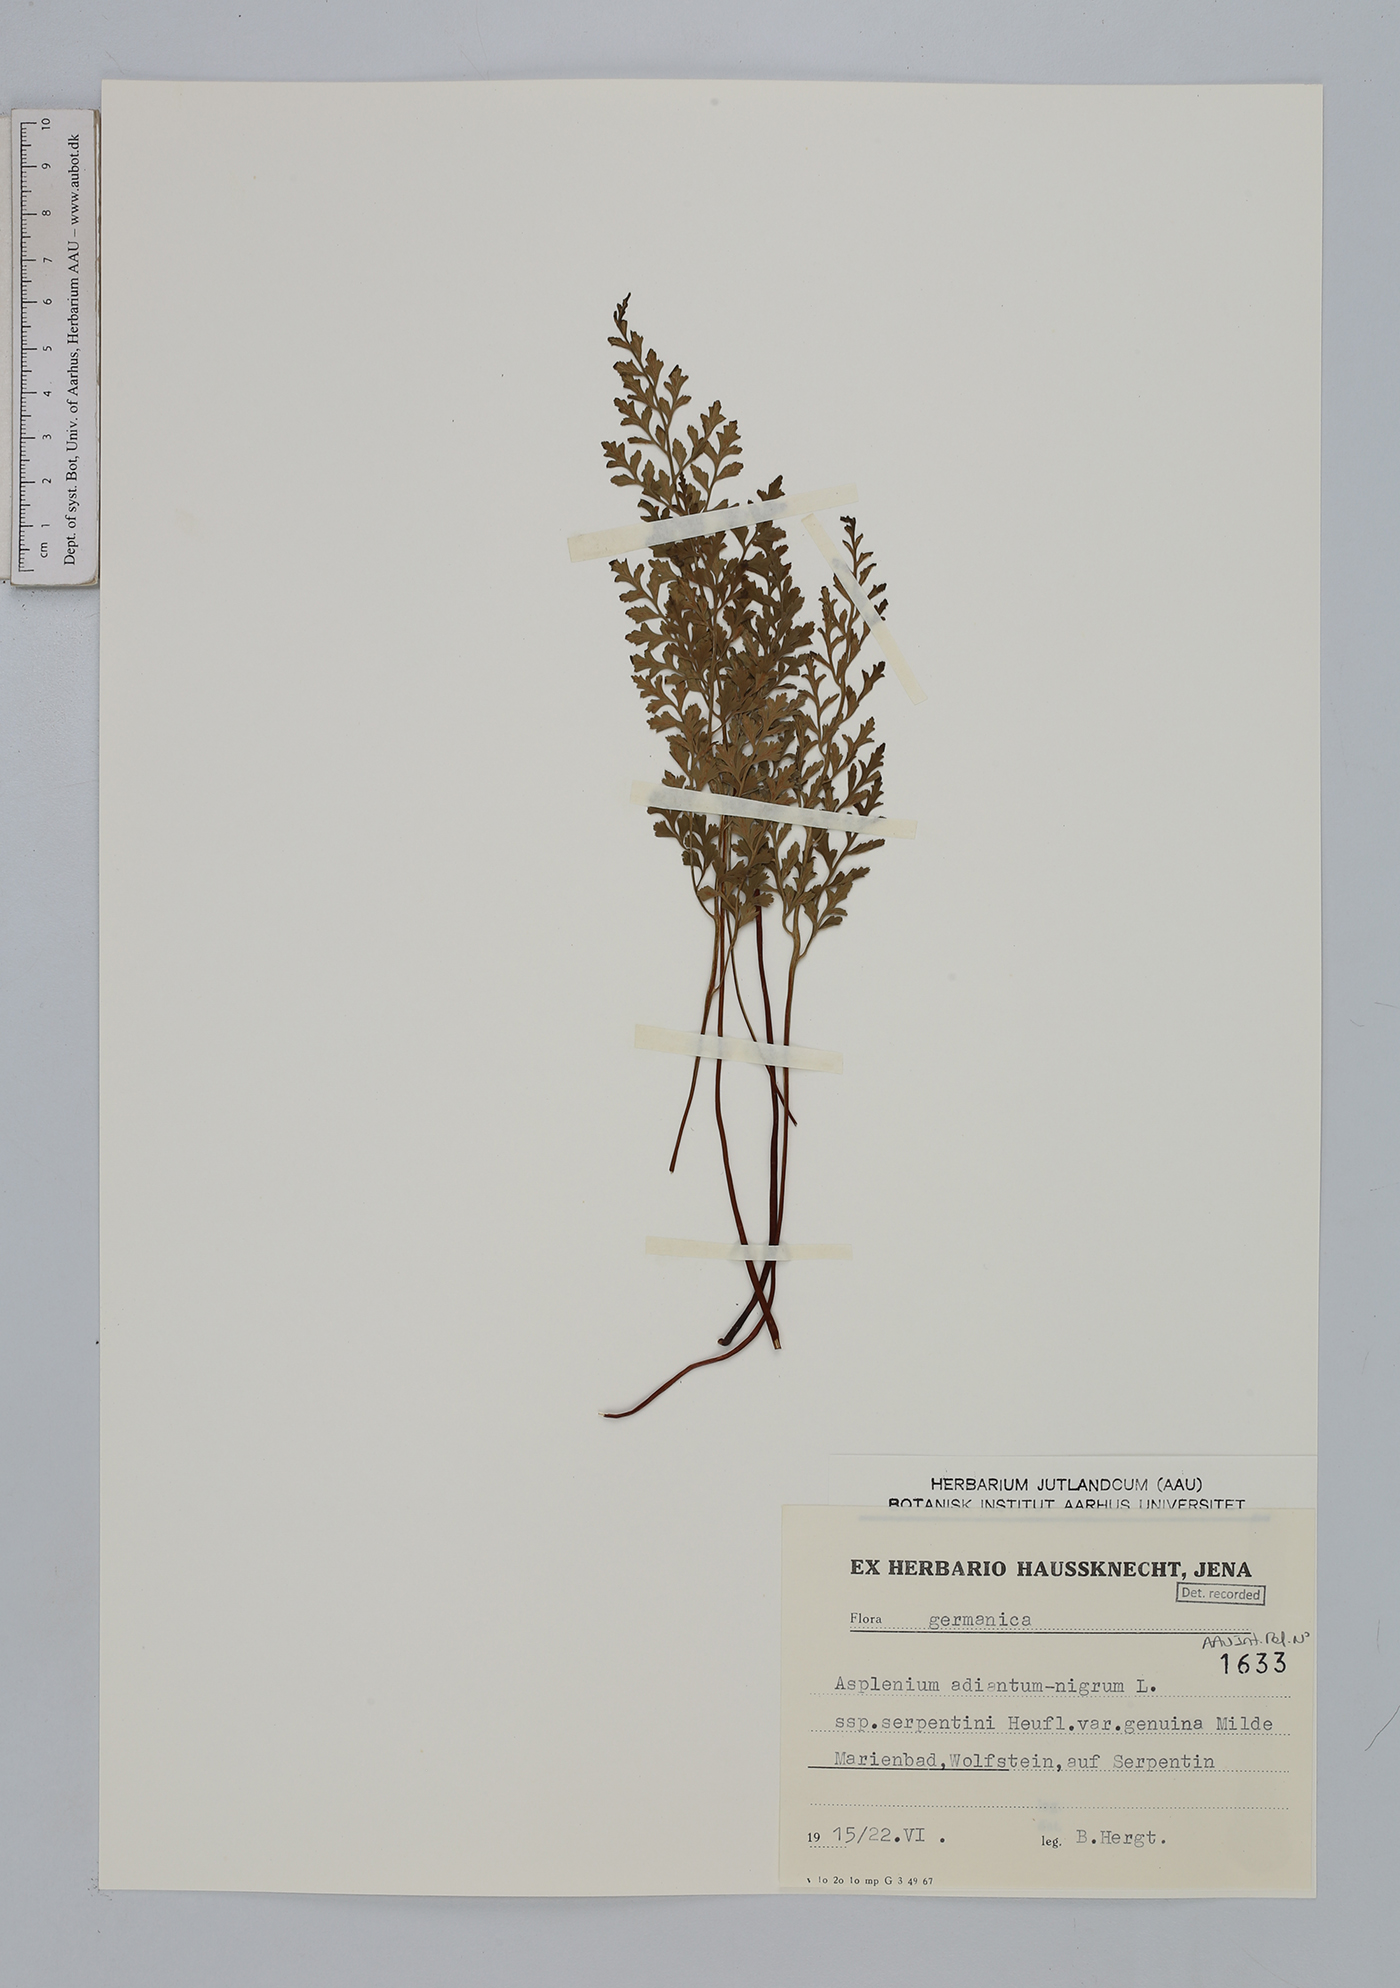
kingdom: Plantae
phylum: Tracheophyta
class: Polypodiopsida
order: Polypodiales
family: Aspleniaceae
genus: Asplenium
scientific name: Asplenium adiantum-nigrum
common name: Black spleenwort
